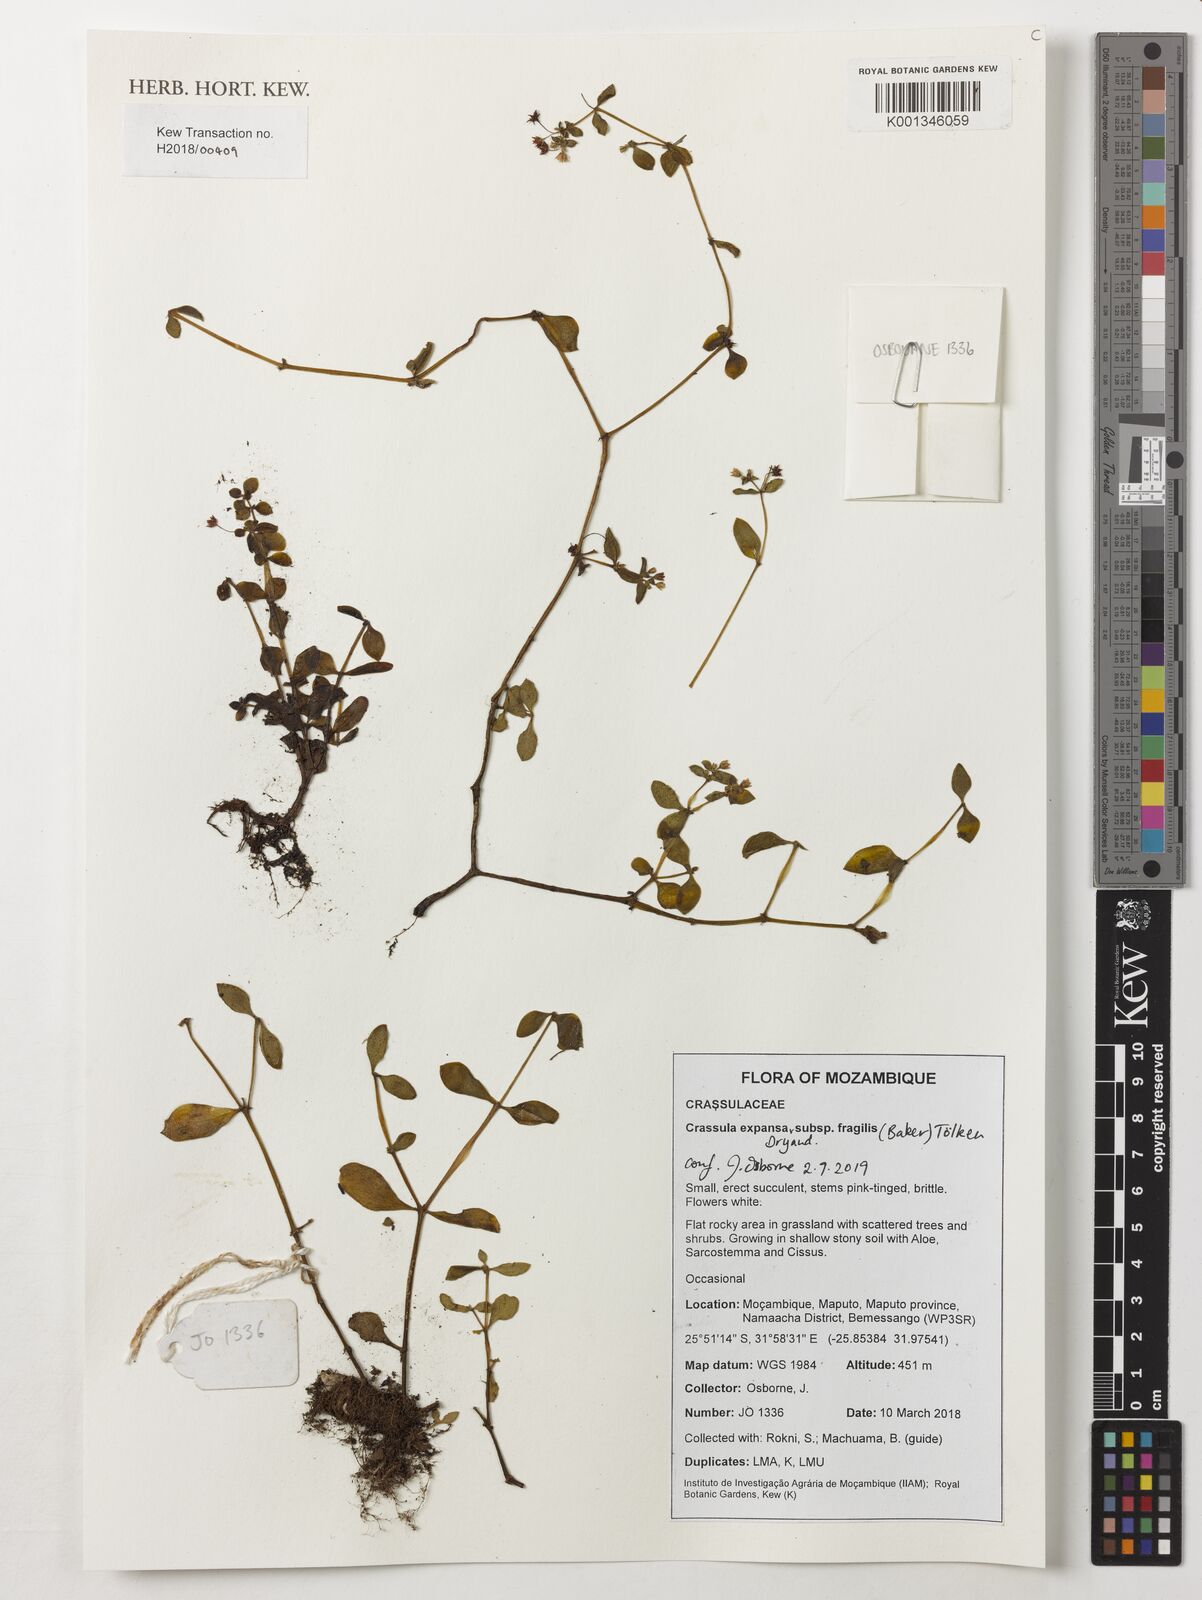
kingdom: Plantae
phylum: Tracheophyta
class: Magnoliopsida
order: Saxifragales
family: Crassulaceae
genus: Crassula
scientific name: Crassula expansa
